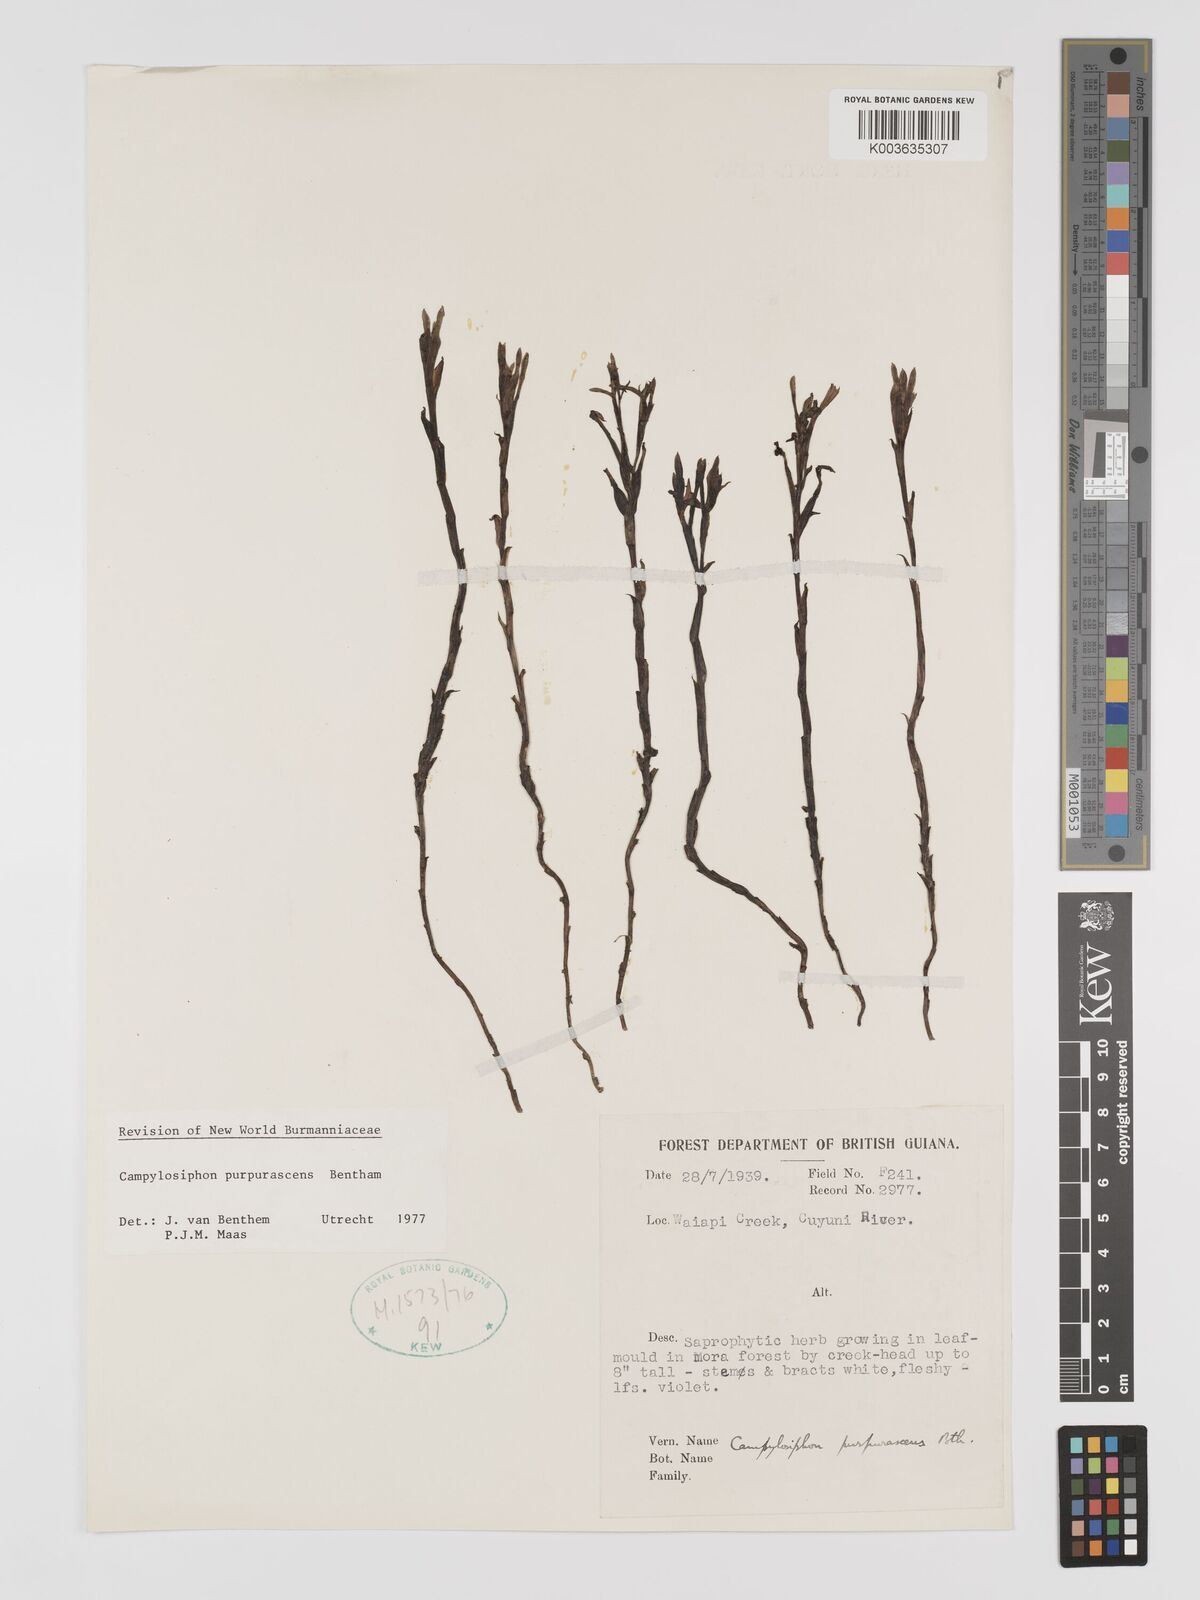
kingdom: Plantae
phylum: Tracheophyta
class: Liliopsida
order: Dioscoreales
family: Burmanniaceae
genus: Campylosiphon
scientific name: Campylosiphon purpurascens
